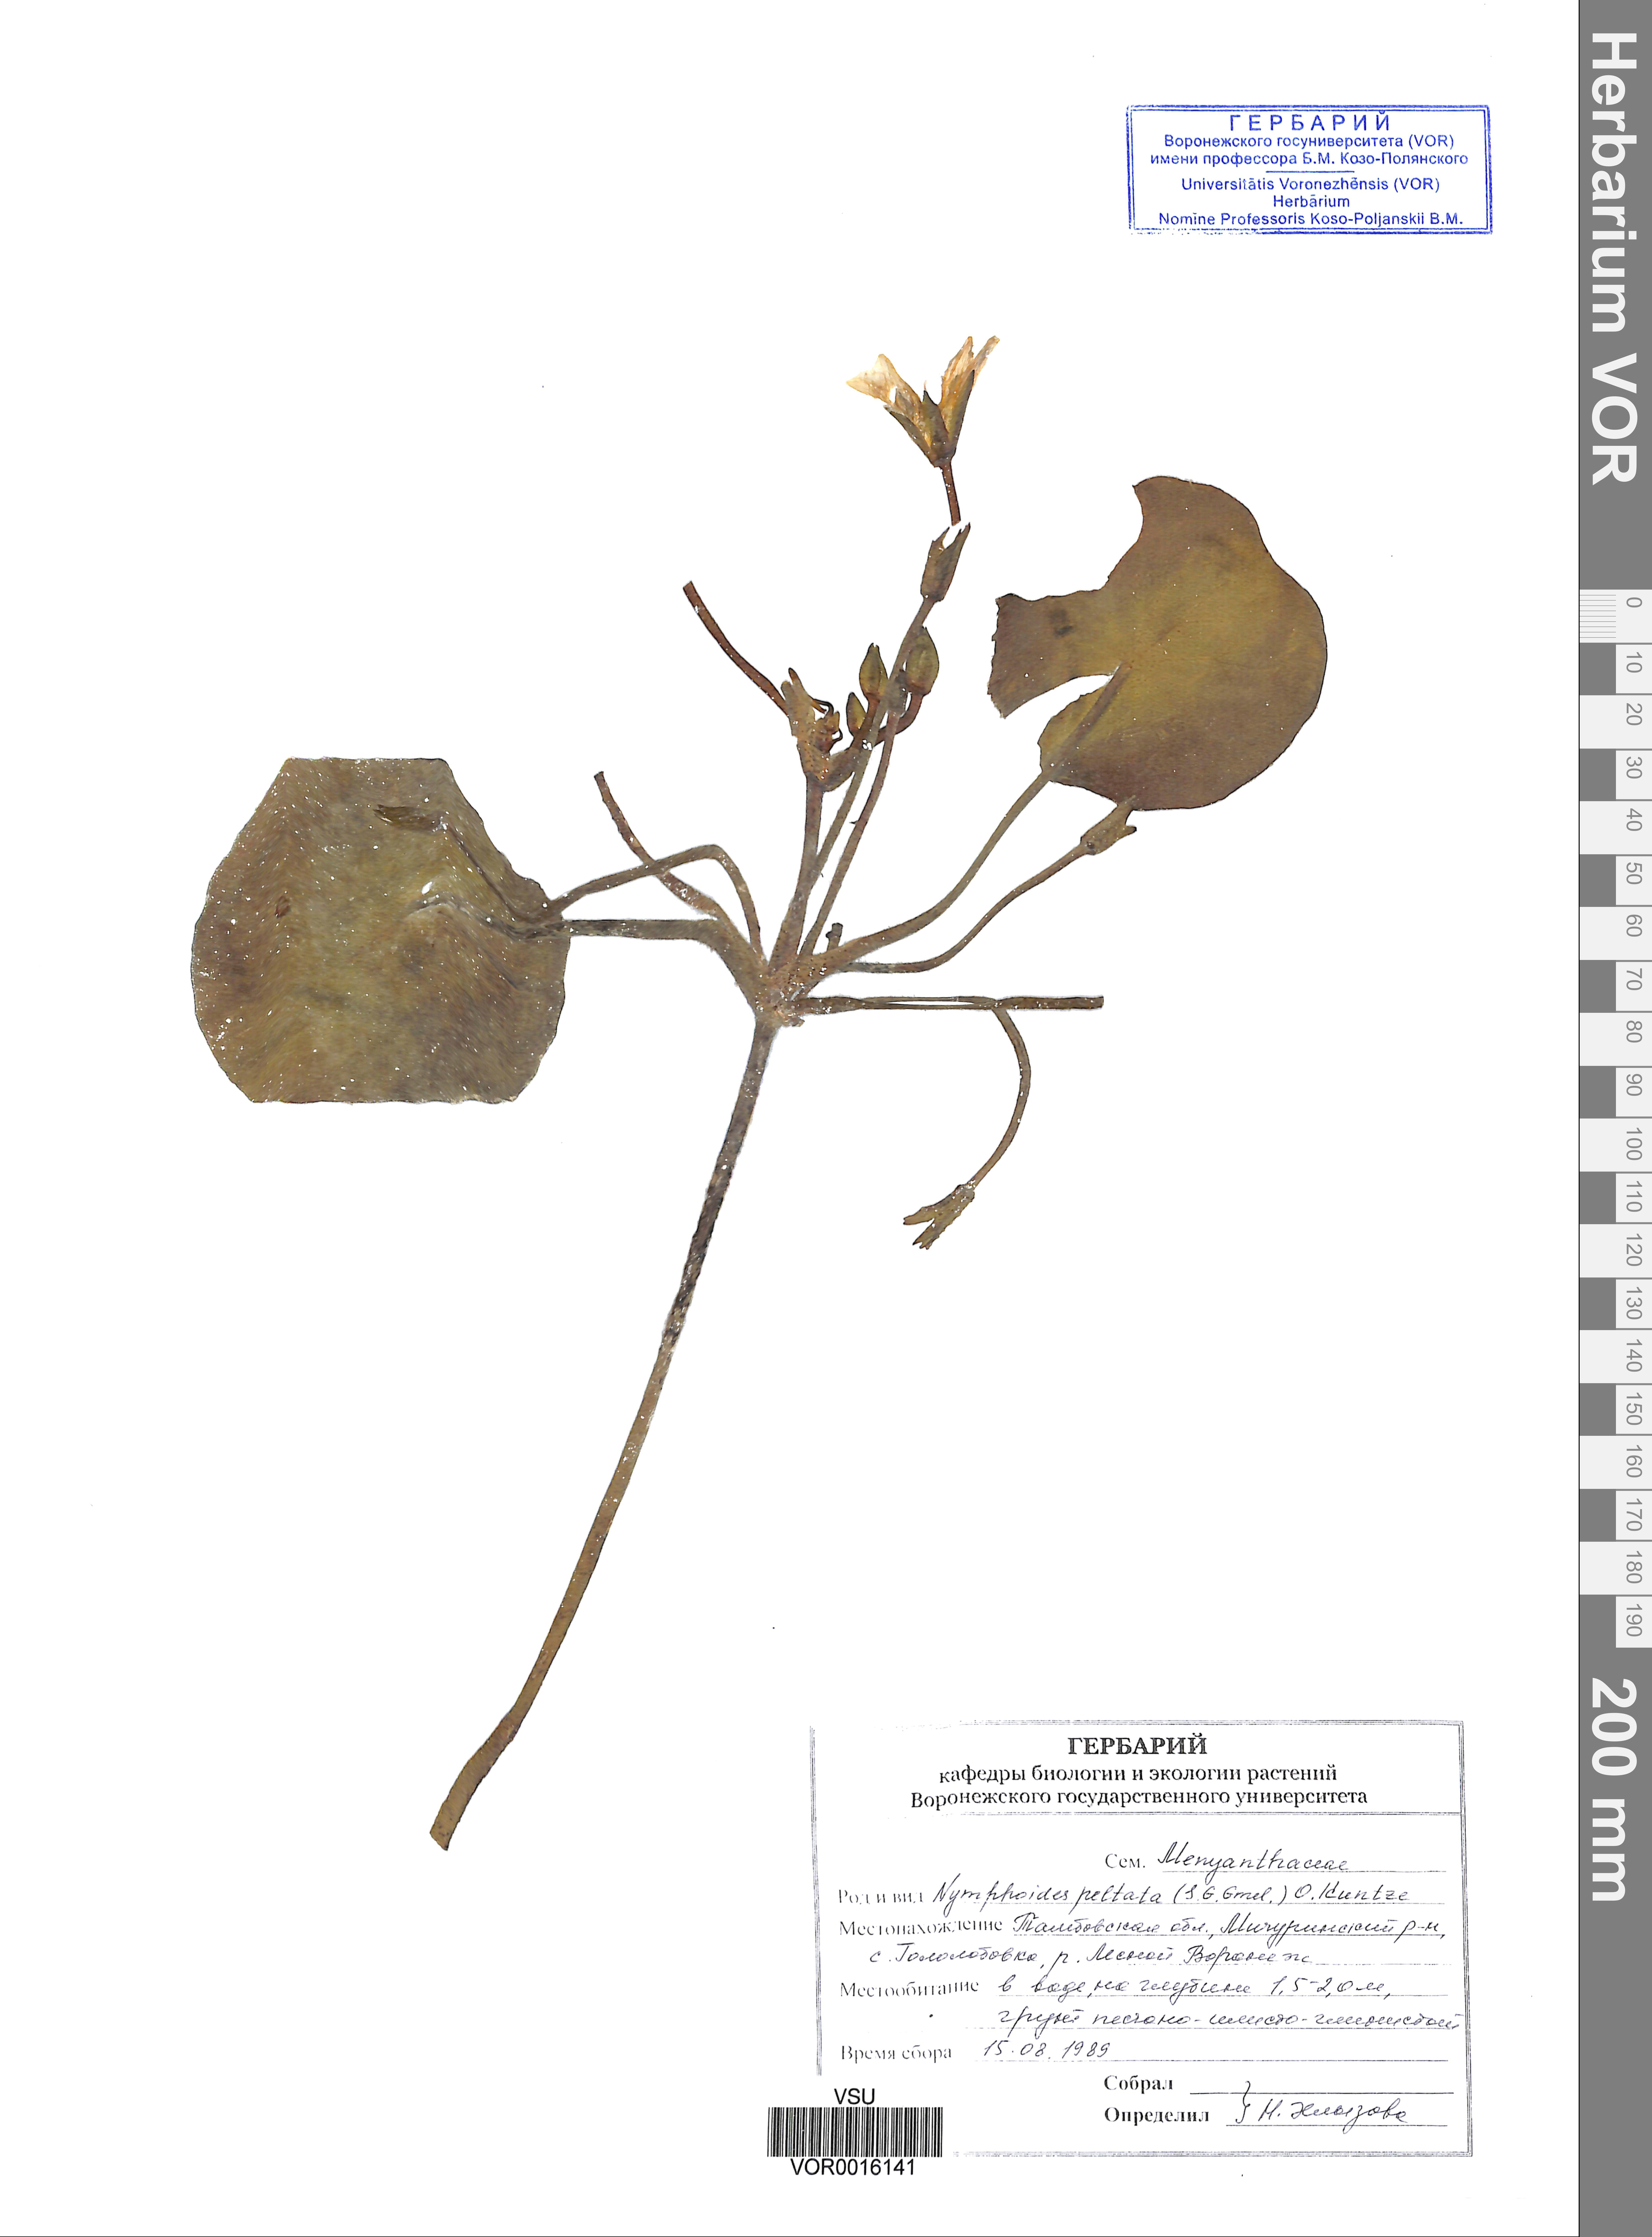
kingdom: Plantae
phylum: Tracheophyta
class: Magnoliopsida
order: Asterales
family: Menyanthaceae
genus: Nymphoides
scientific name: Nymphoides peltata
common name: Fringed water-lily
